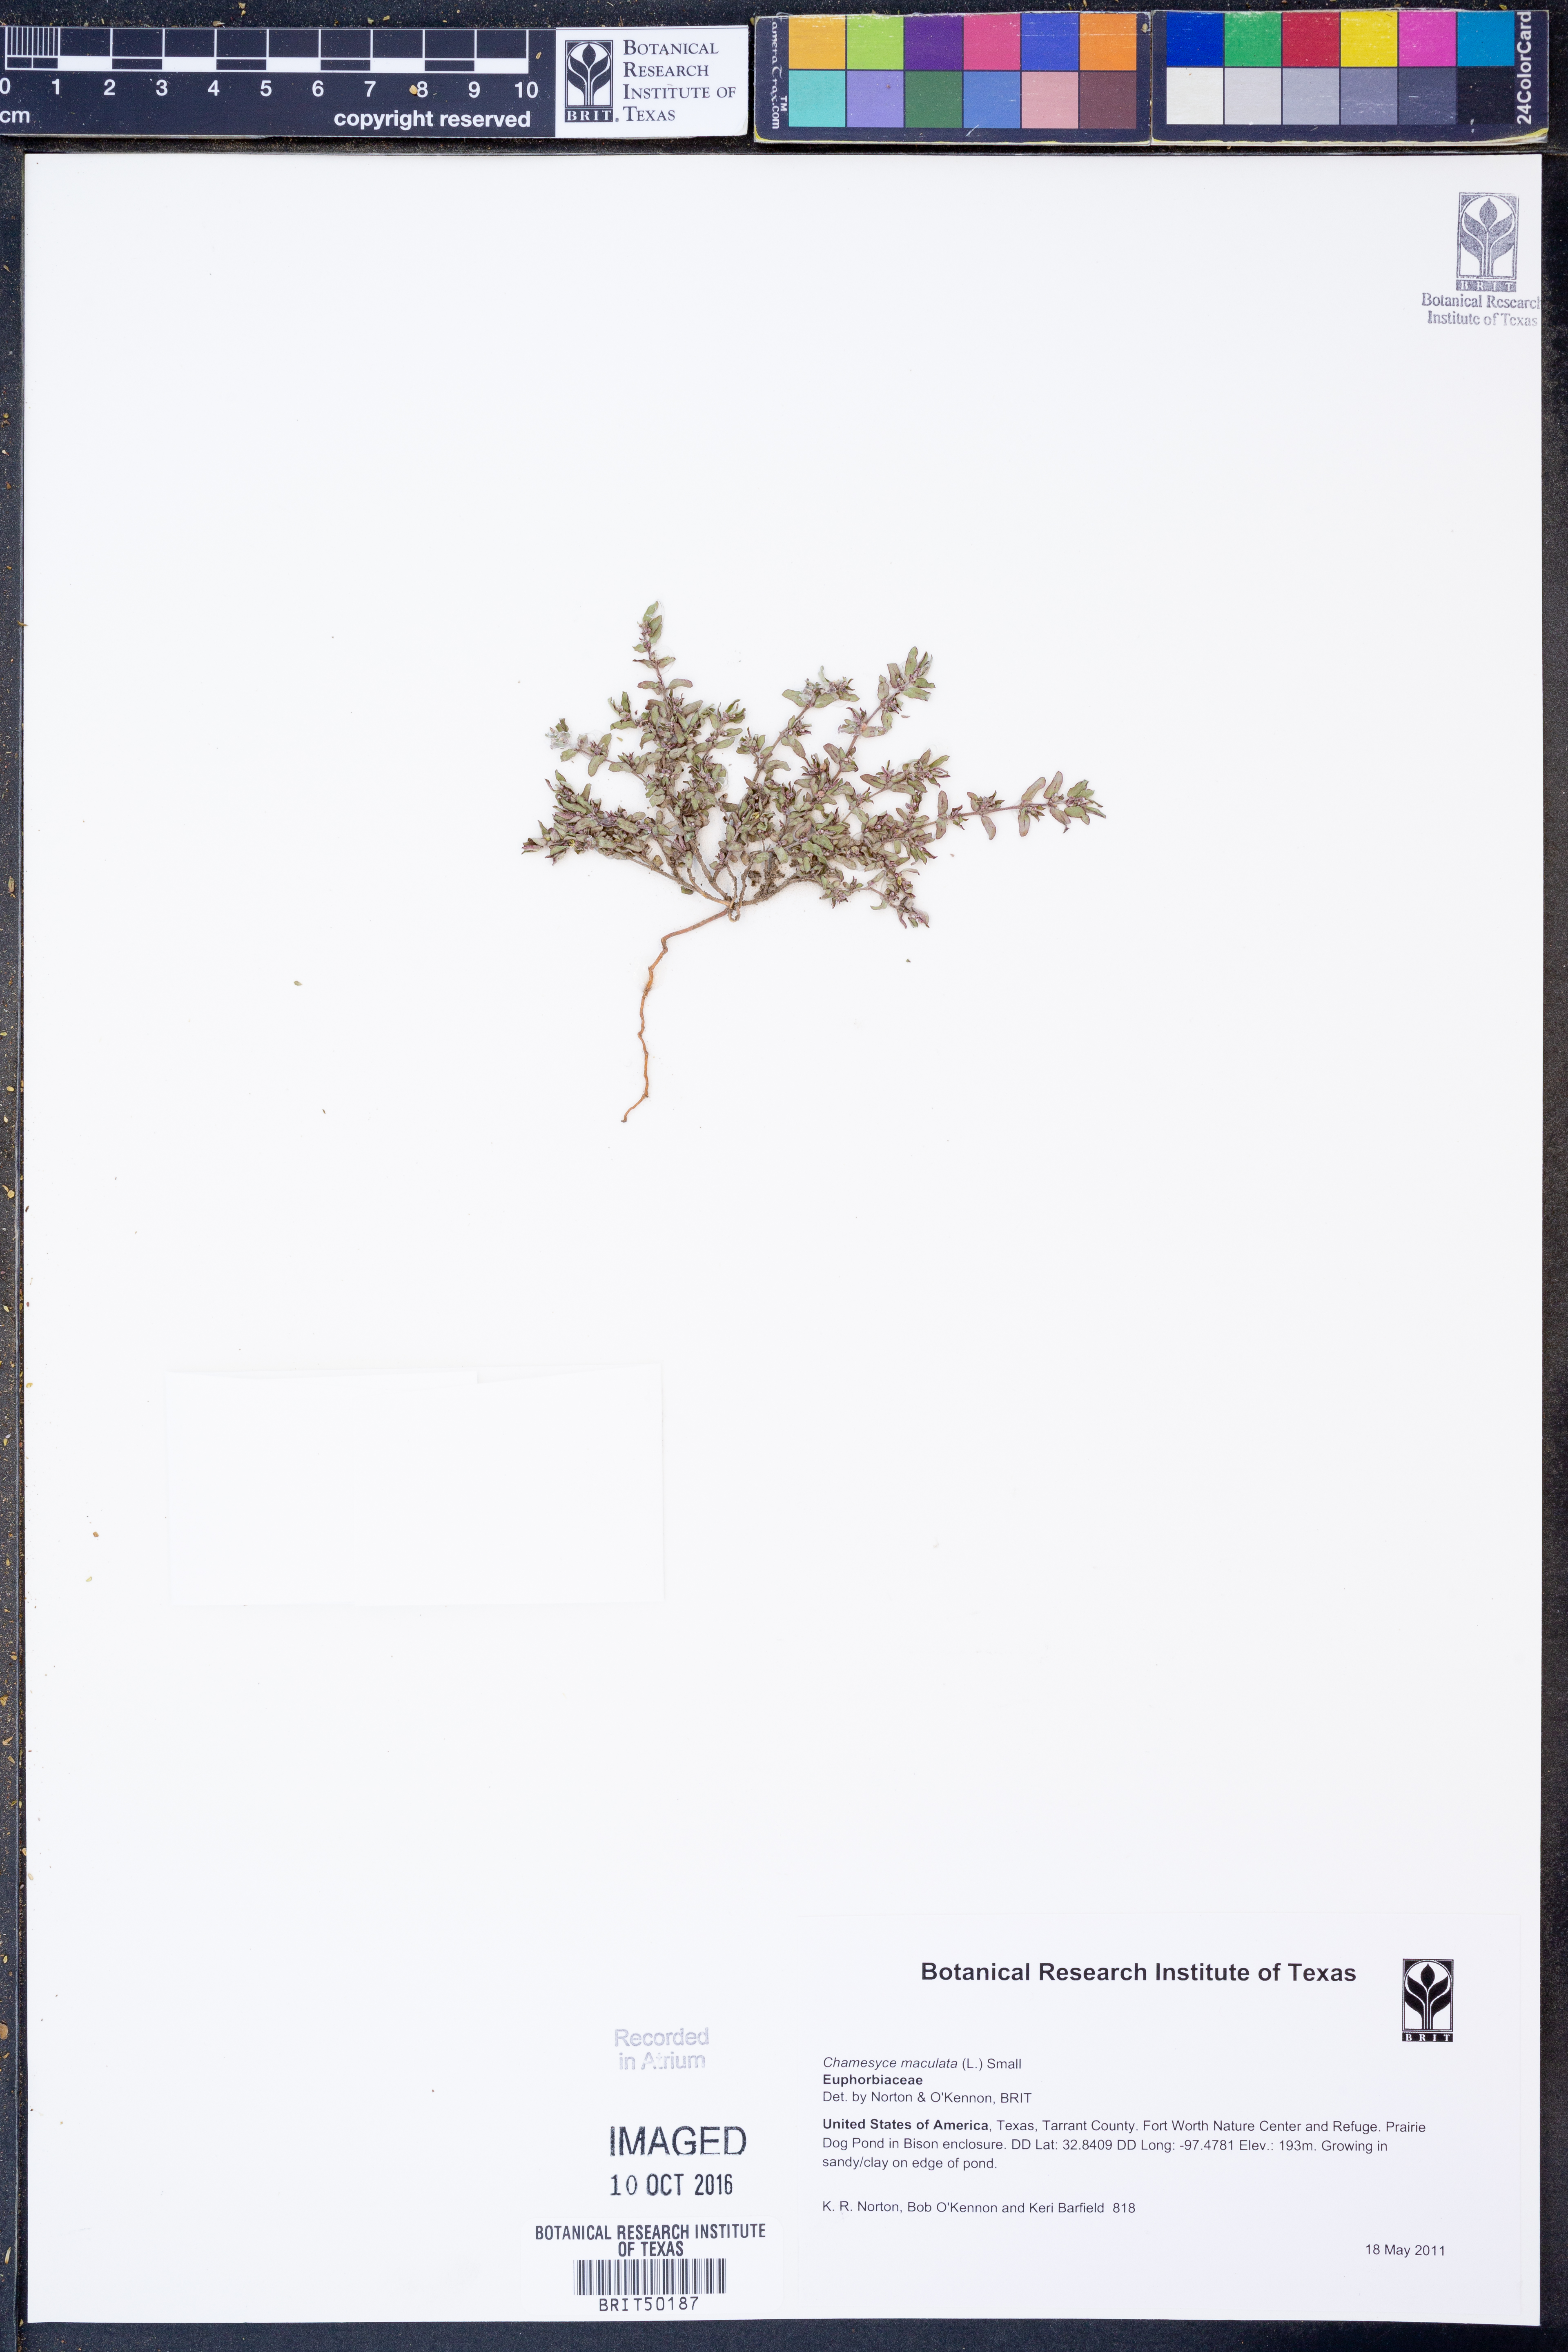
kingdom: Plantae
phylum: Tracheophyta
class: Magnoliopsida
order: Malpighiales
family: Euphorbiaceae
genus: Euphorbia
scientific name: Euphorbia maculata
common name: Spotted spurge
